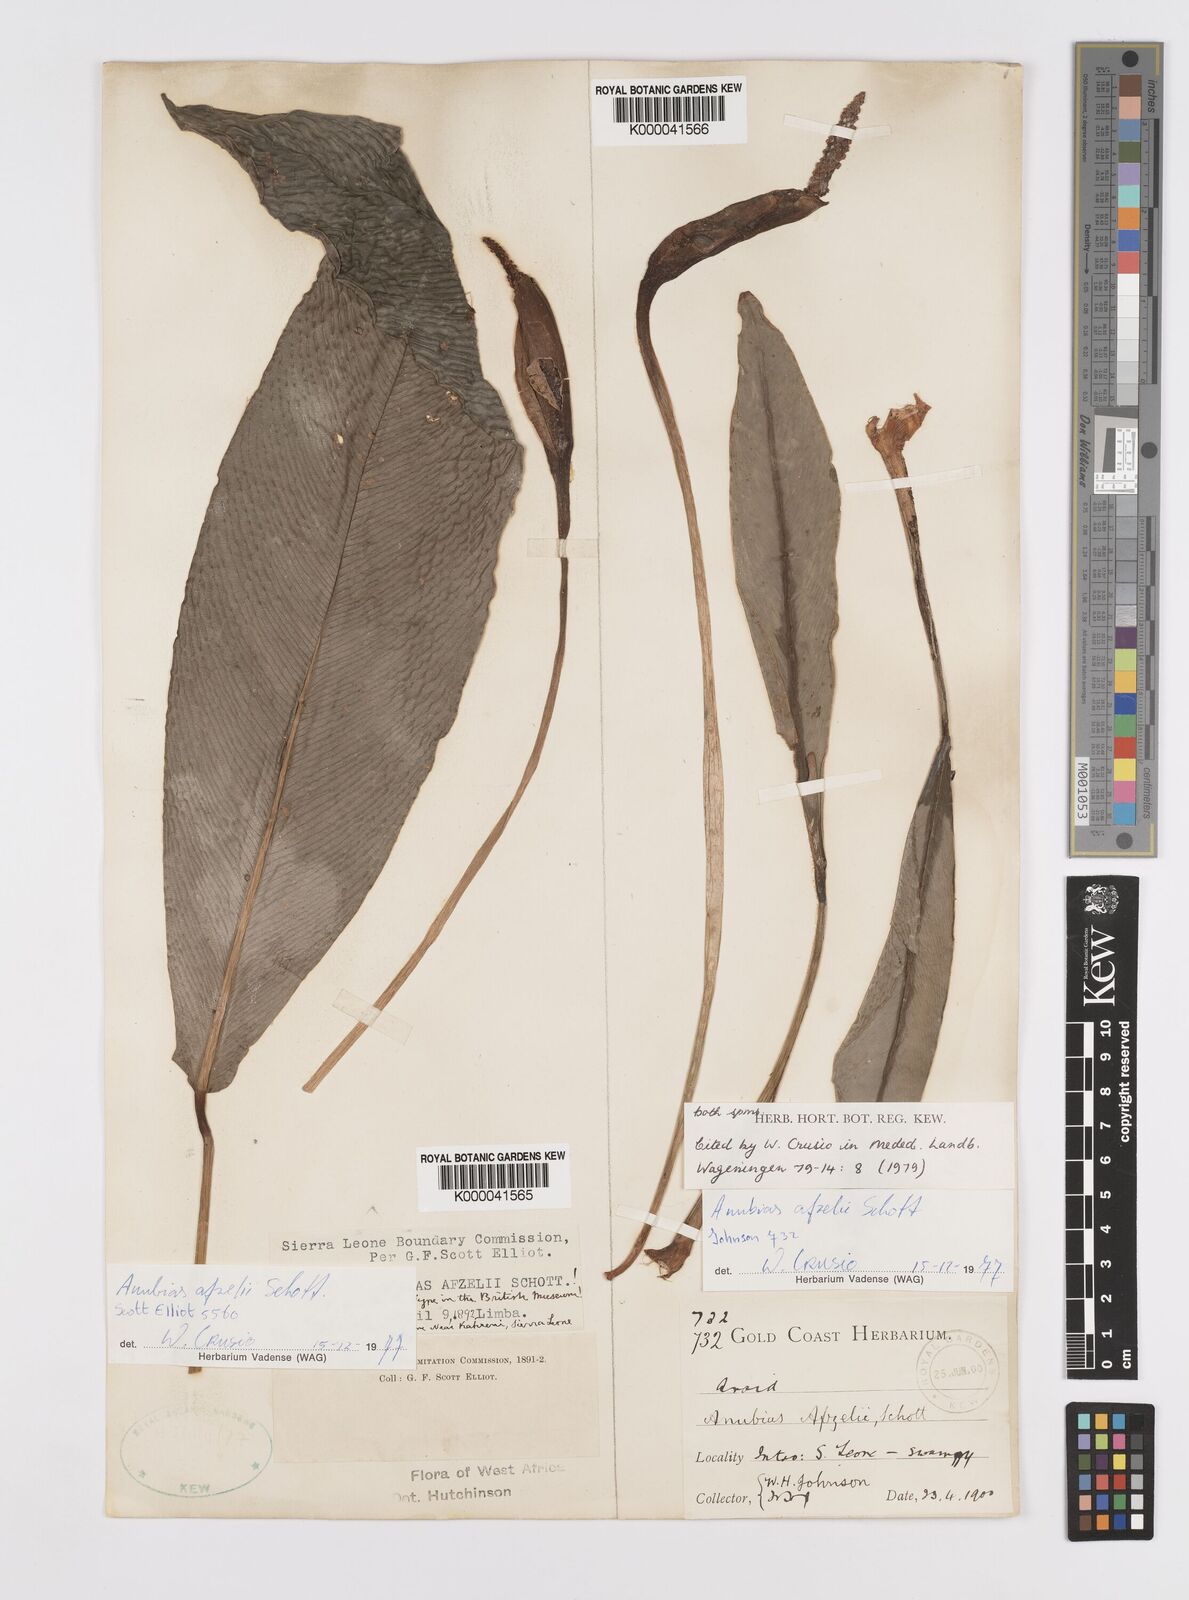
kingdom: Plantae
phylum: Tracheophyta
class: Liliopsida
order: Alismatales
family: Araceae
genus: Anubias
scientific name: Anubias afzelii
